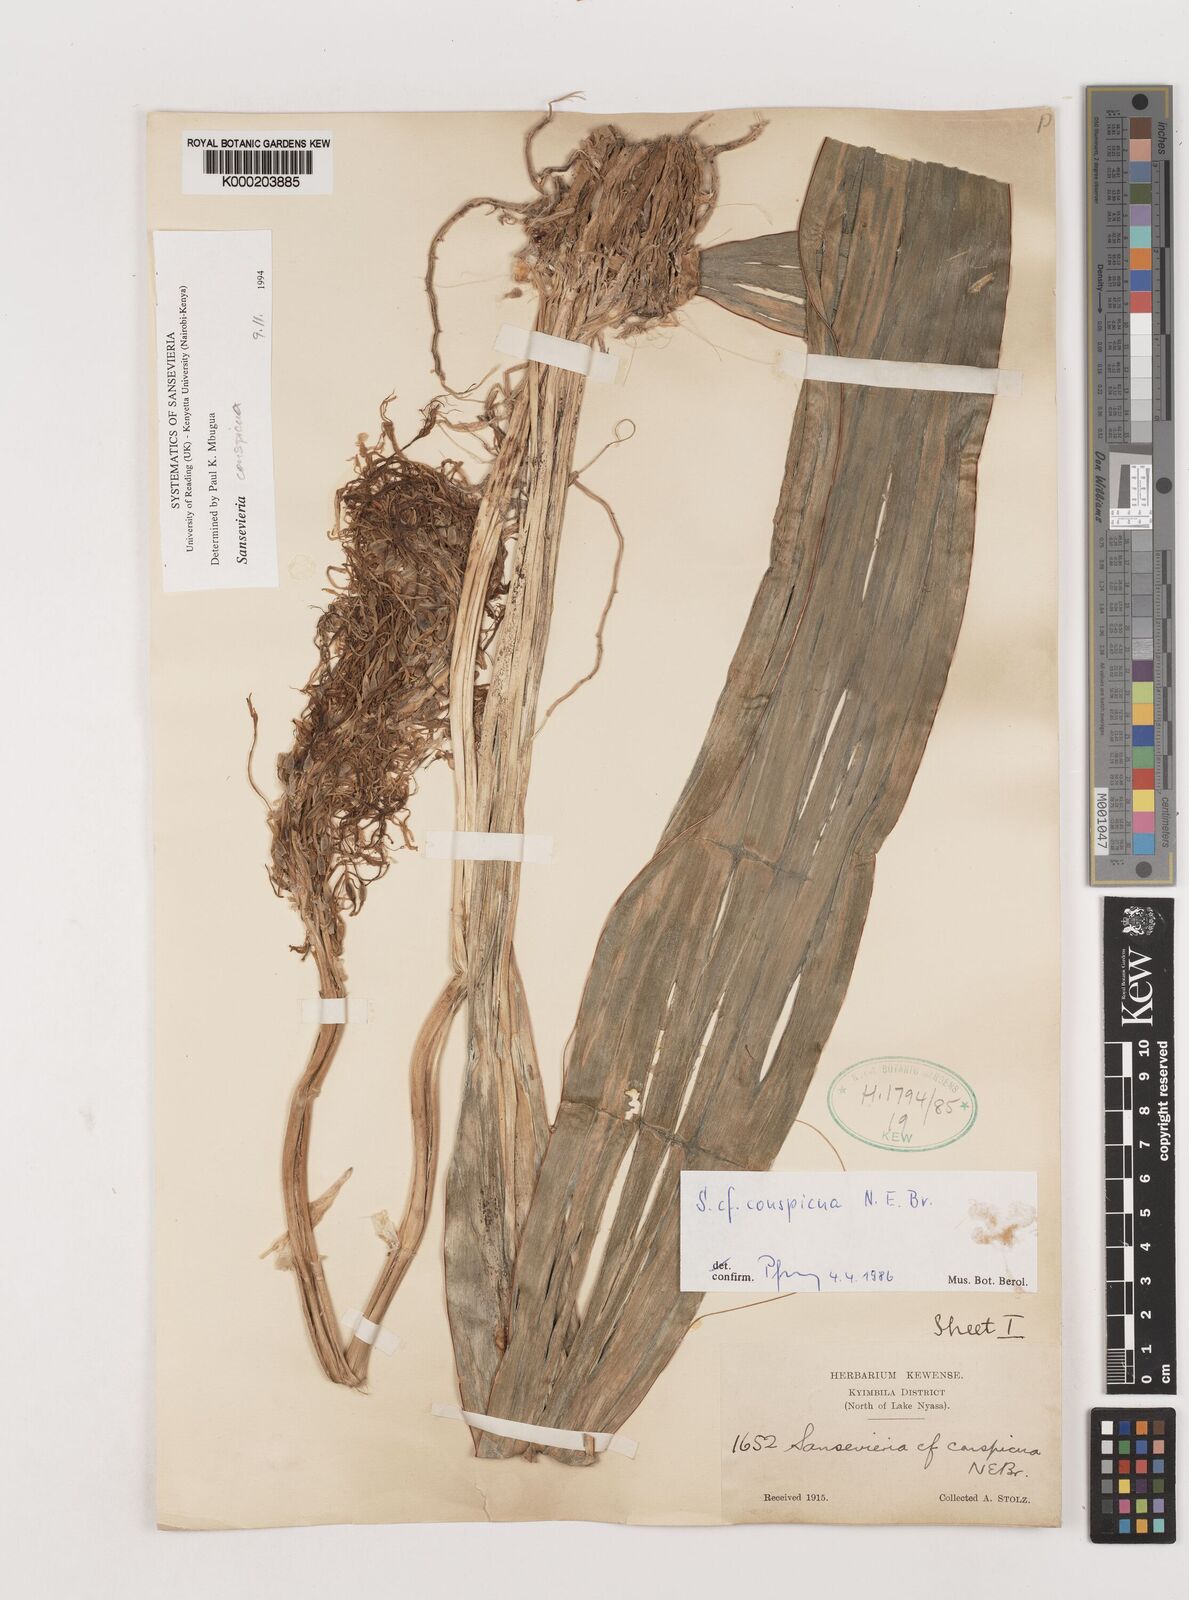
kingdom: Plantae
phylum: Tracheophyta
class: Liliopsida
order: Asparagales
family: Asparagaceae
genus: Dracaena
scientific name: Dracaena conspicua
